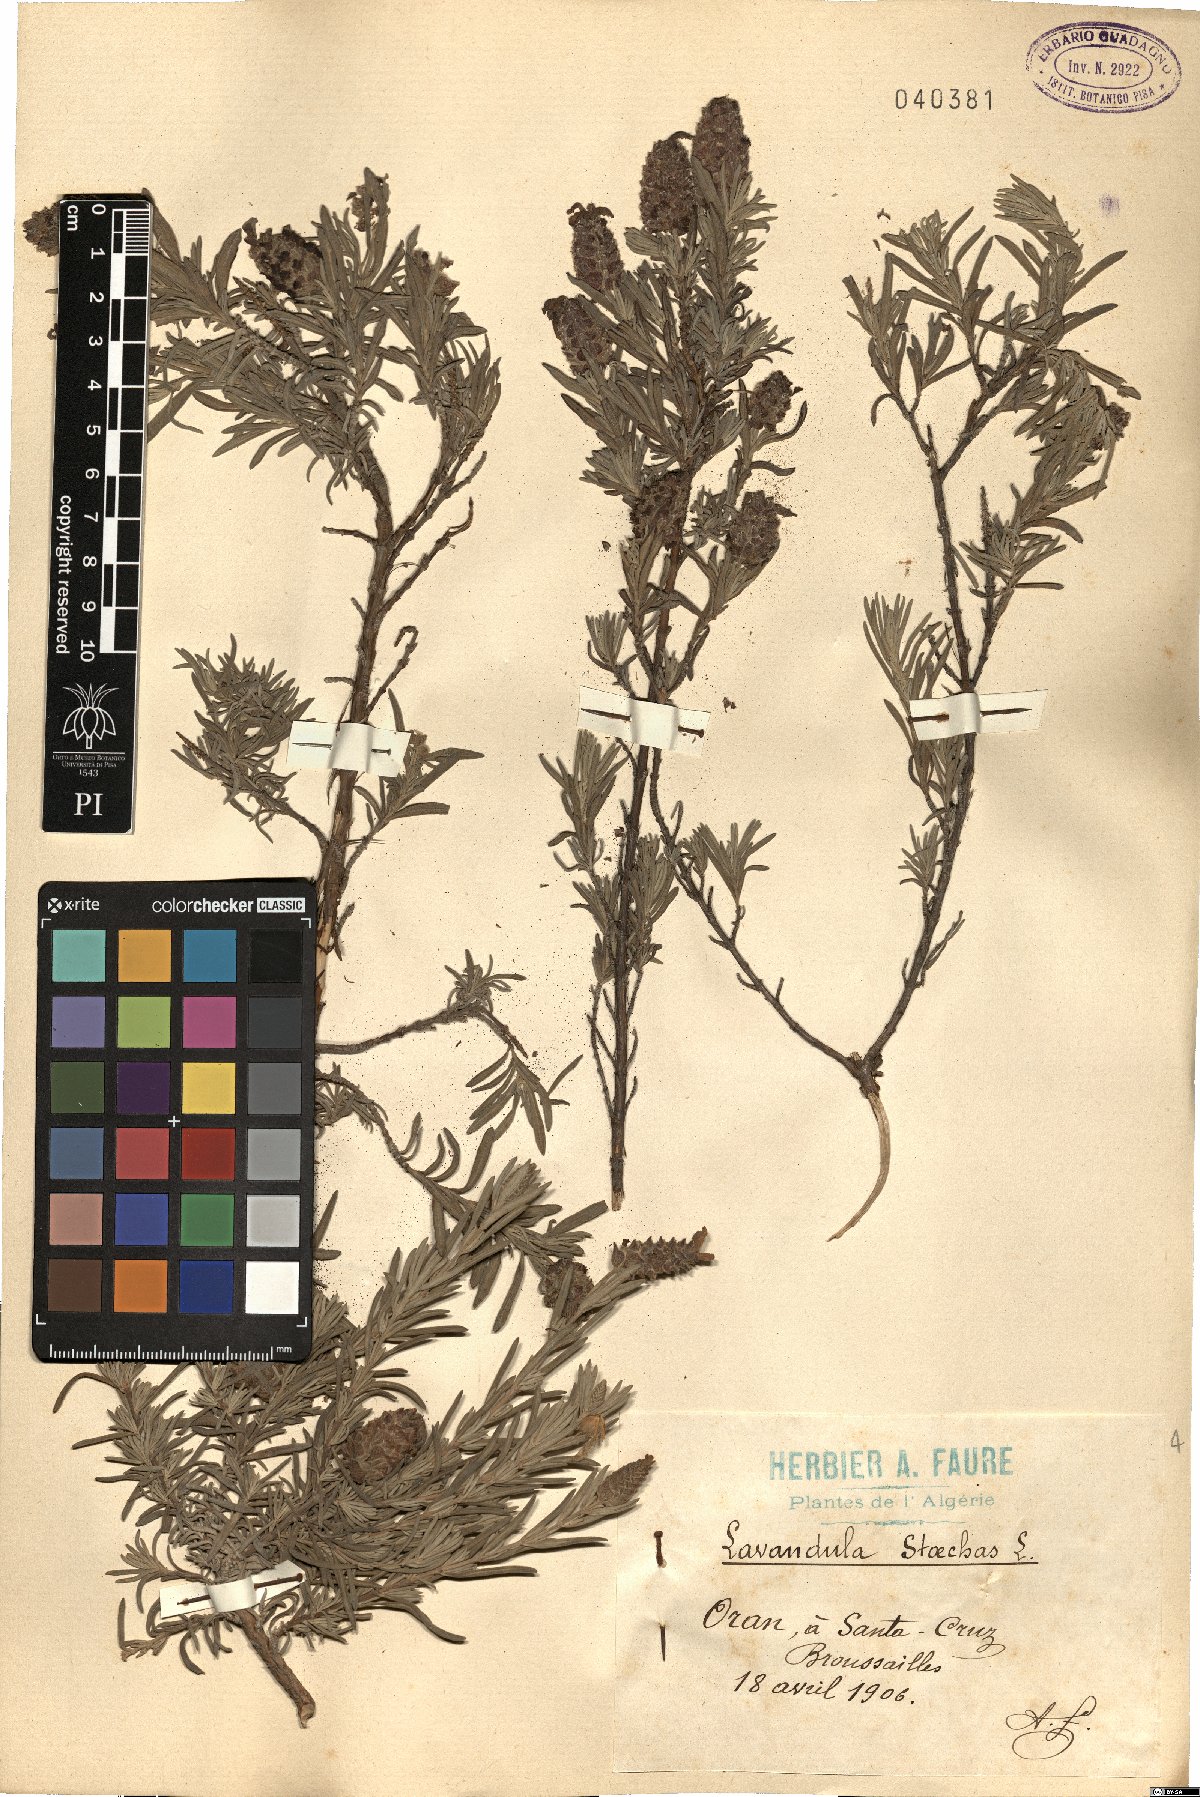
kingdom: Plantae
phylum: Tracheophyta
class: Magnoliopsida
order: Lamiales
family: Lamiaceae
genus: Lavandula
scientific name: Lavandula stoechas
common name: French lavender
